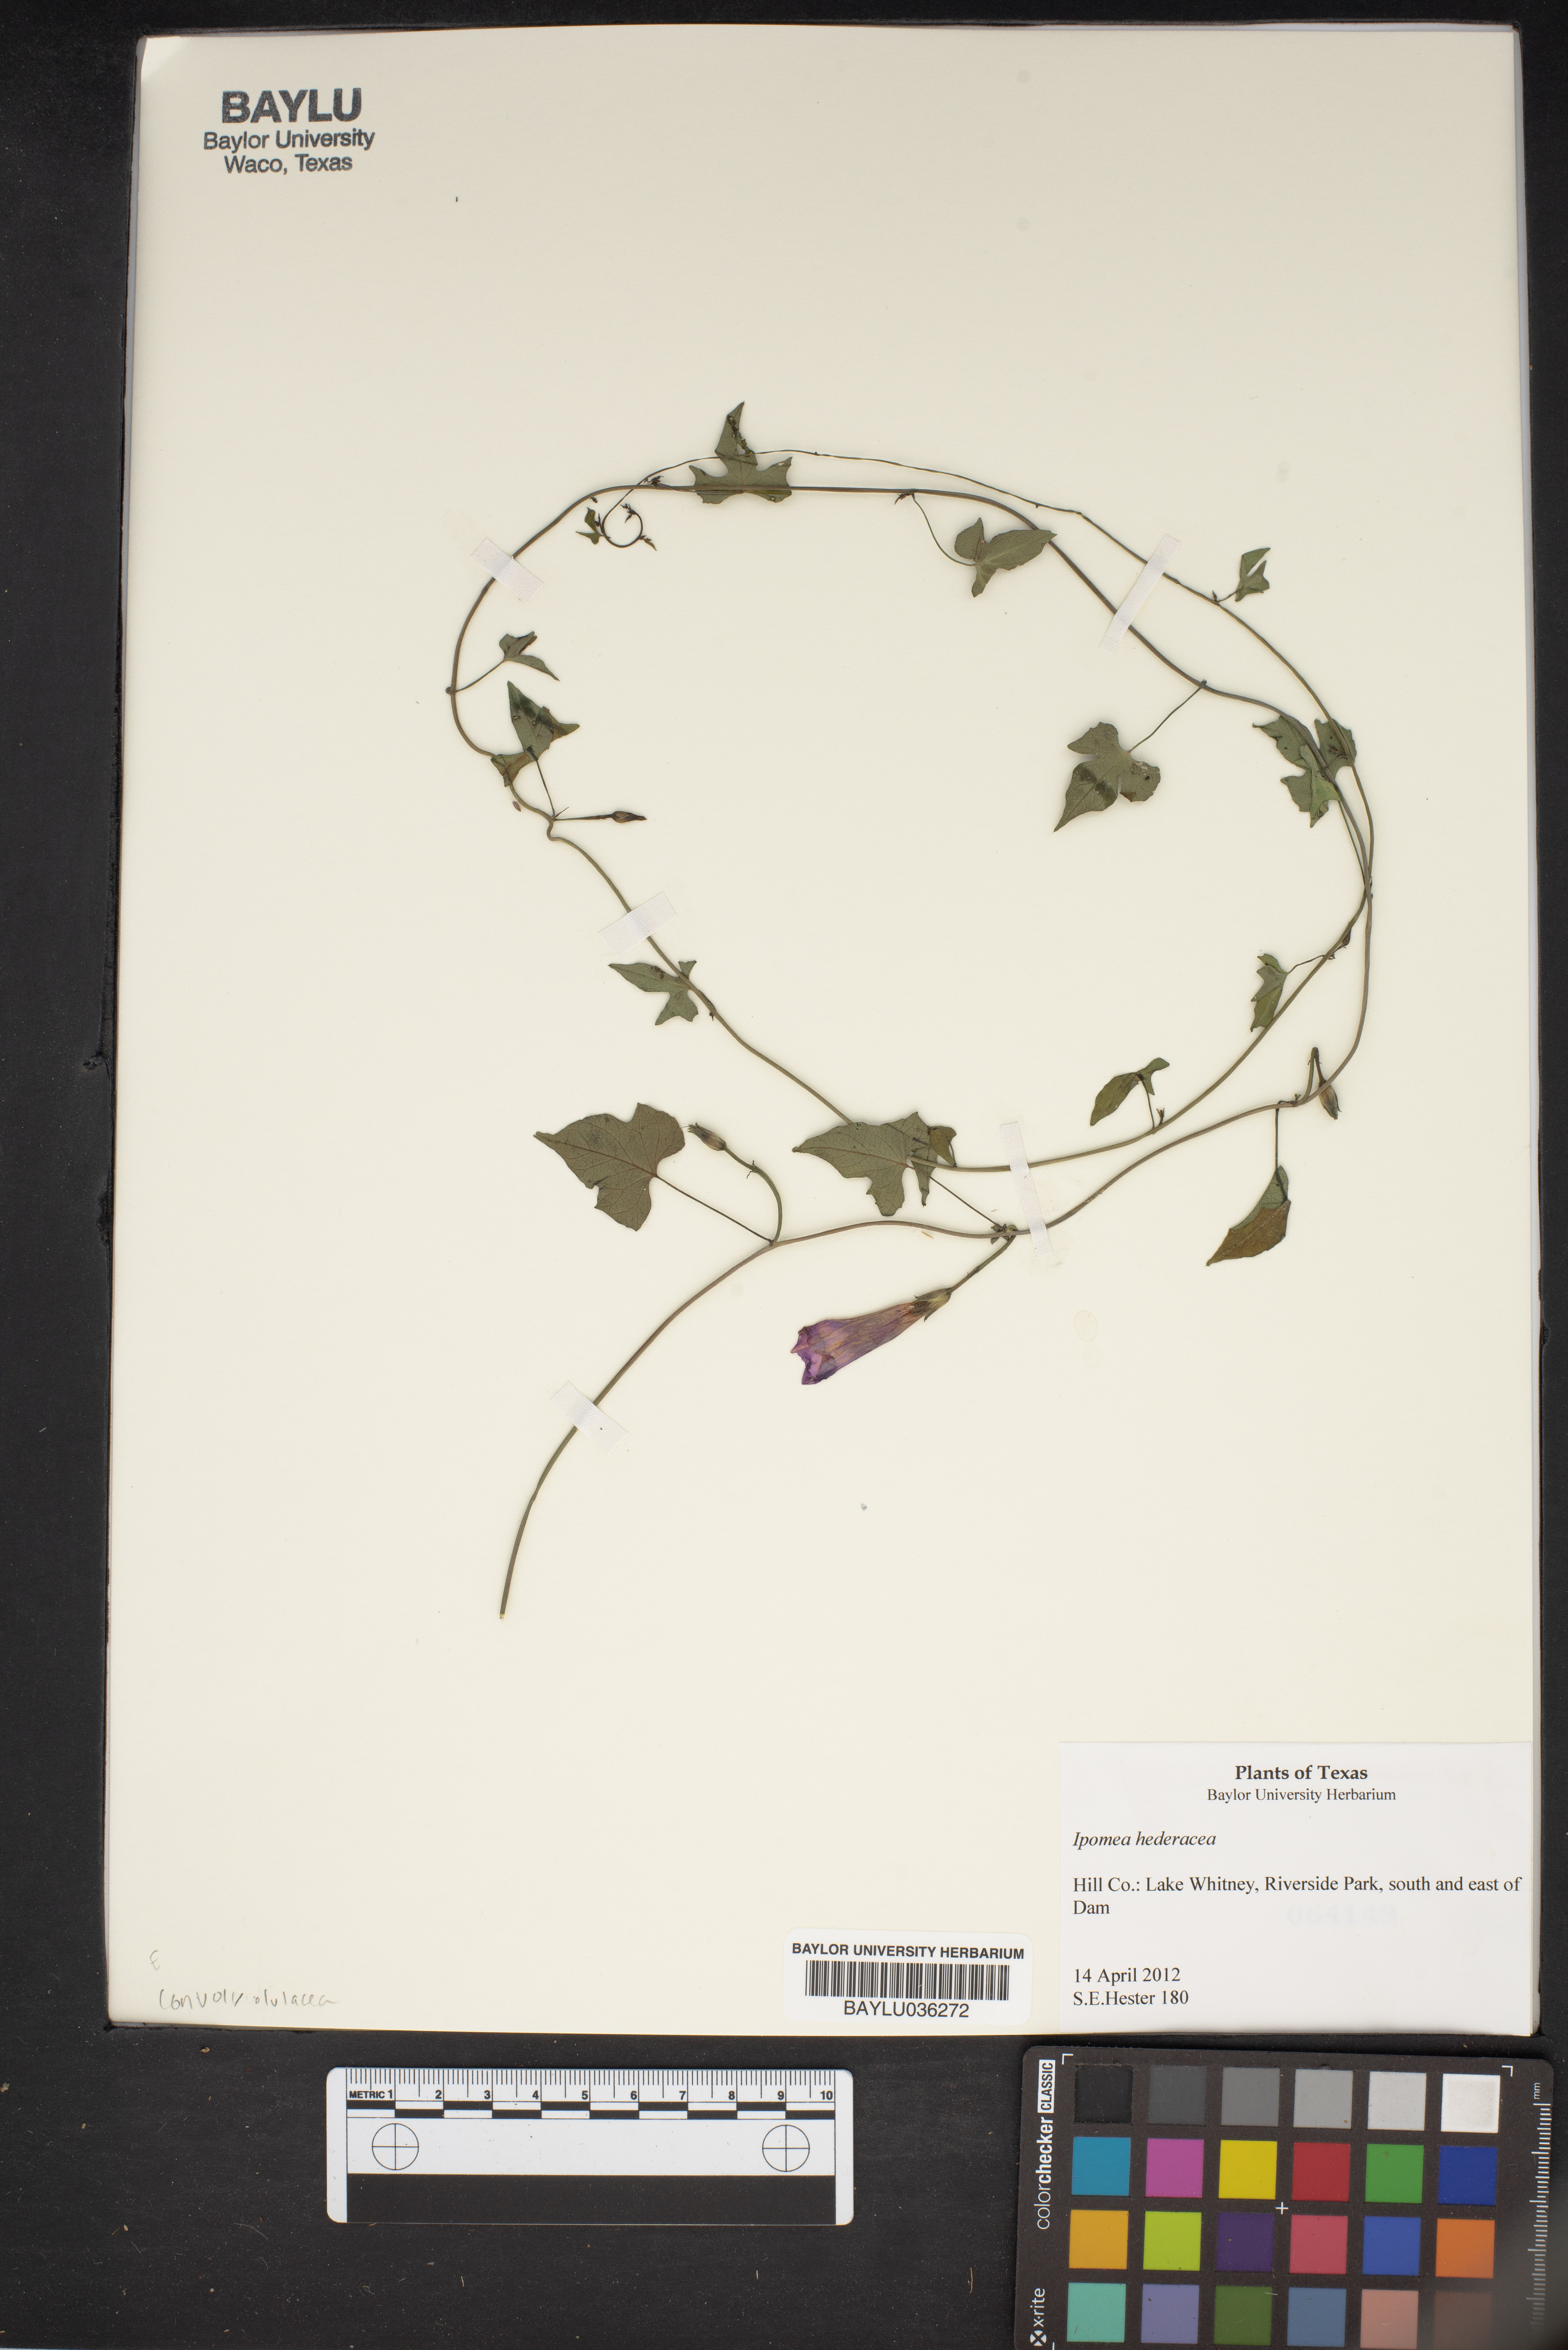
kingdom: Plantae
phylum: Tracheophyta
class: Magnoliopsida
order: Solanales
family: Convolvulaceae
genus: Ipomoea
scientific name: Ipomoea hederacea
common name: Ivy-leaved morning-glory
